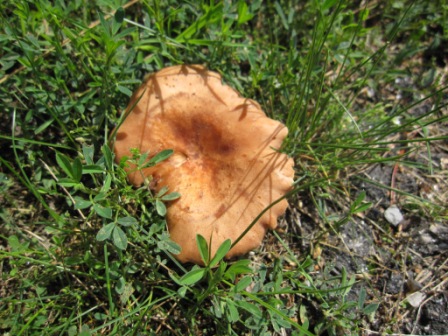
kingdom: Fungi
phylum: Basidiomycota
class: Agaricomycetes
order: Agaricales
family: Pseudoclitocybaceae
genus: Bonomyces
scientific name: Bonomyces sinopicus
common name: svedje-tragthat
